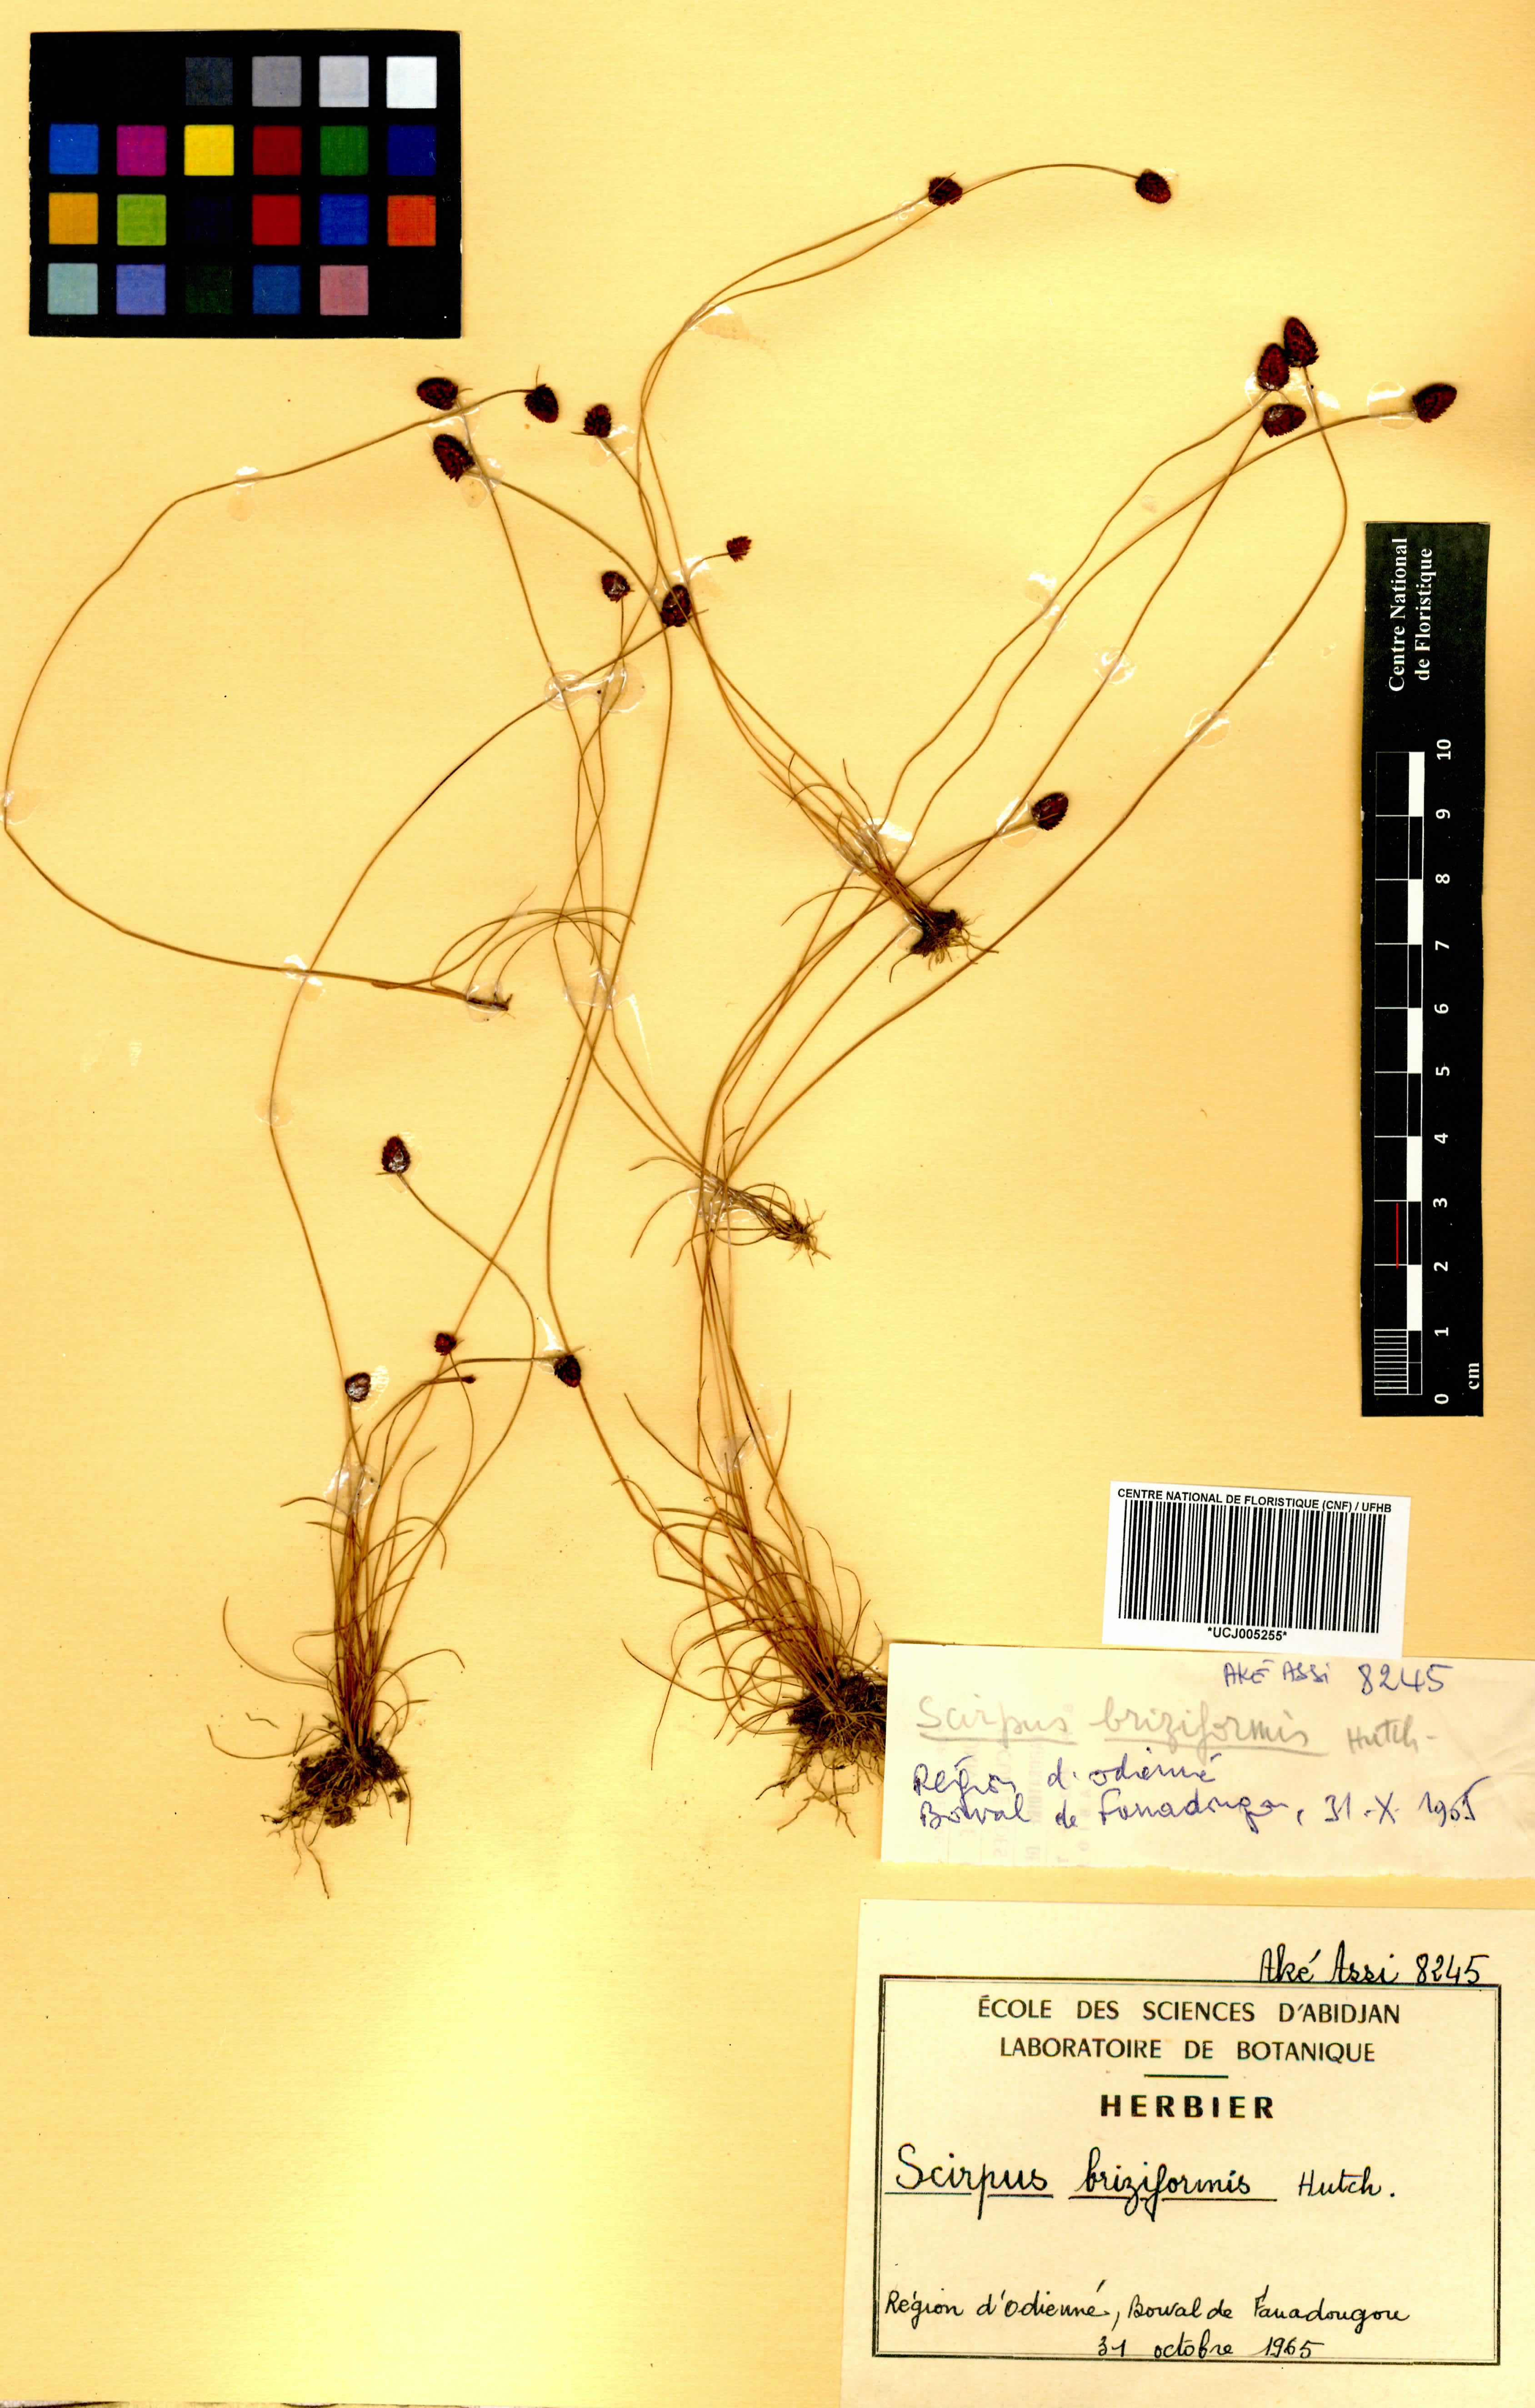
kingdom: Plantae
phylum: Tracheophyta
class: Liliopsida
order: Poales
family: Cyperaceae
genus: Bulbostylis
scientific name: Bulbostylis briziformis
